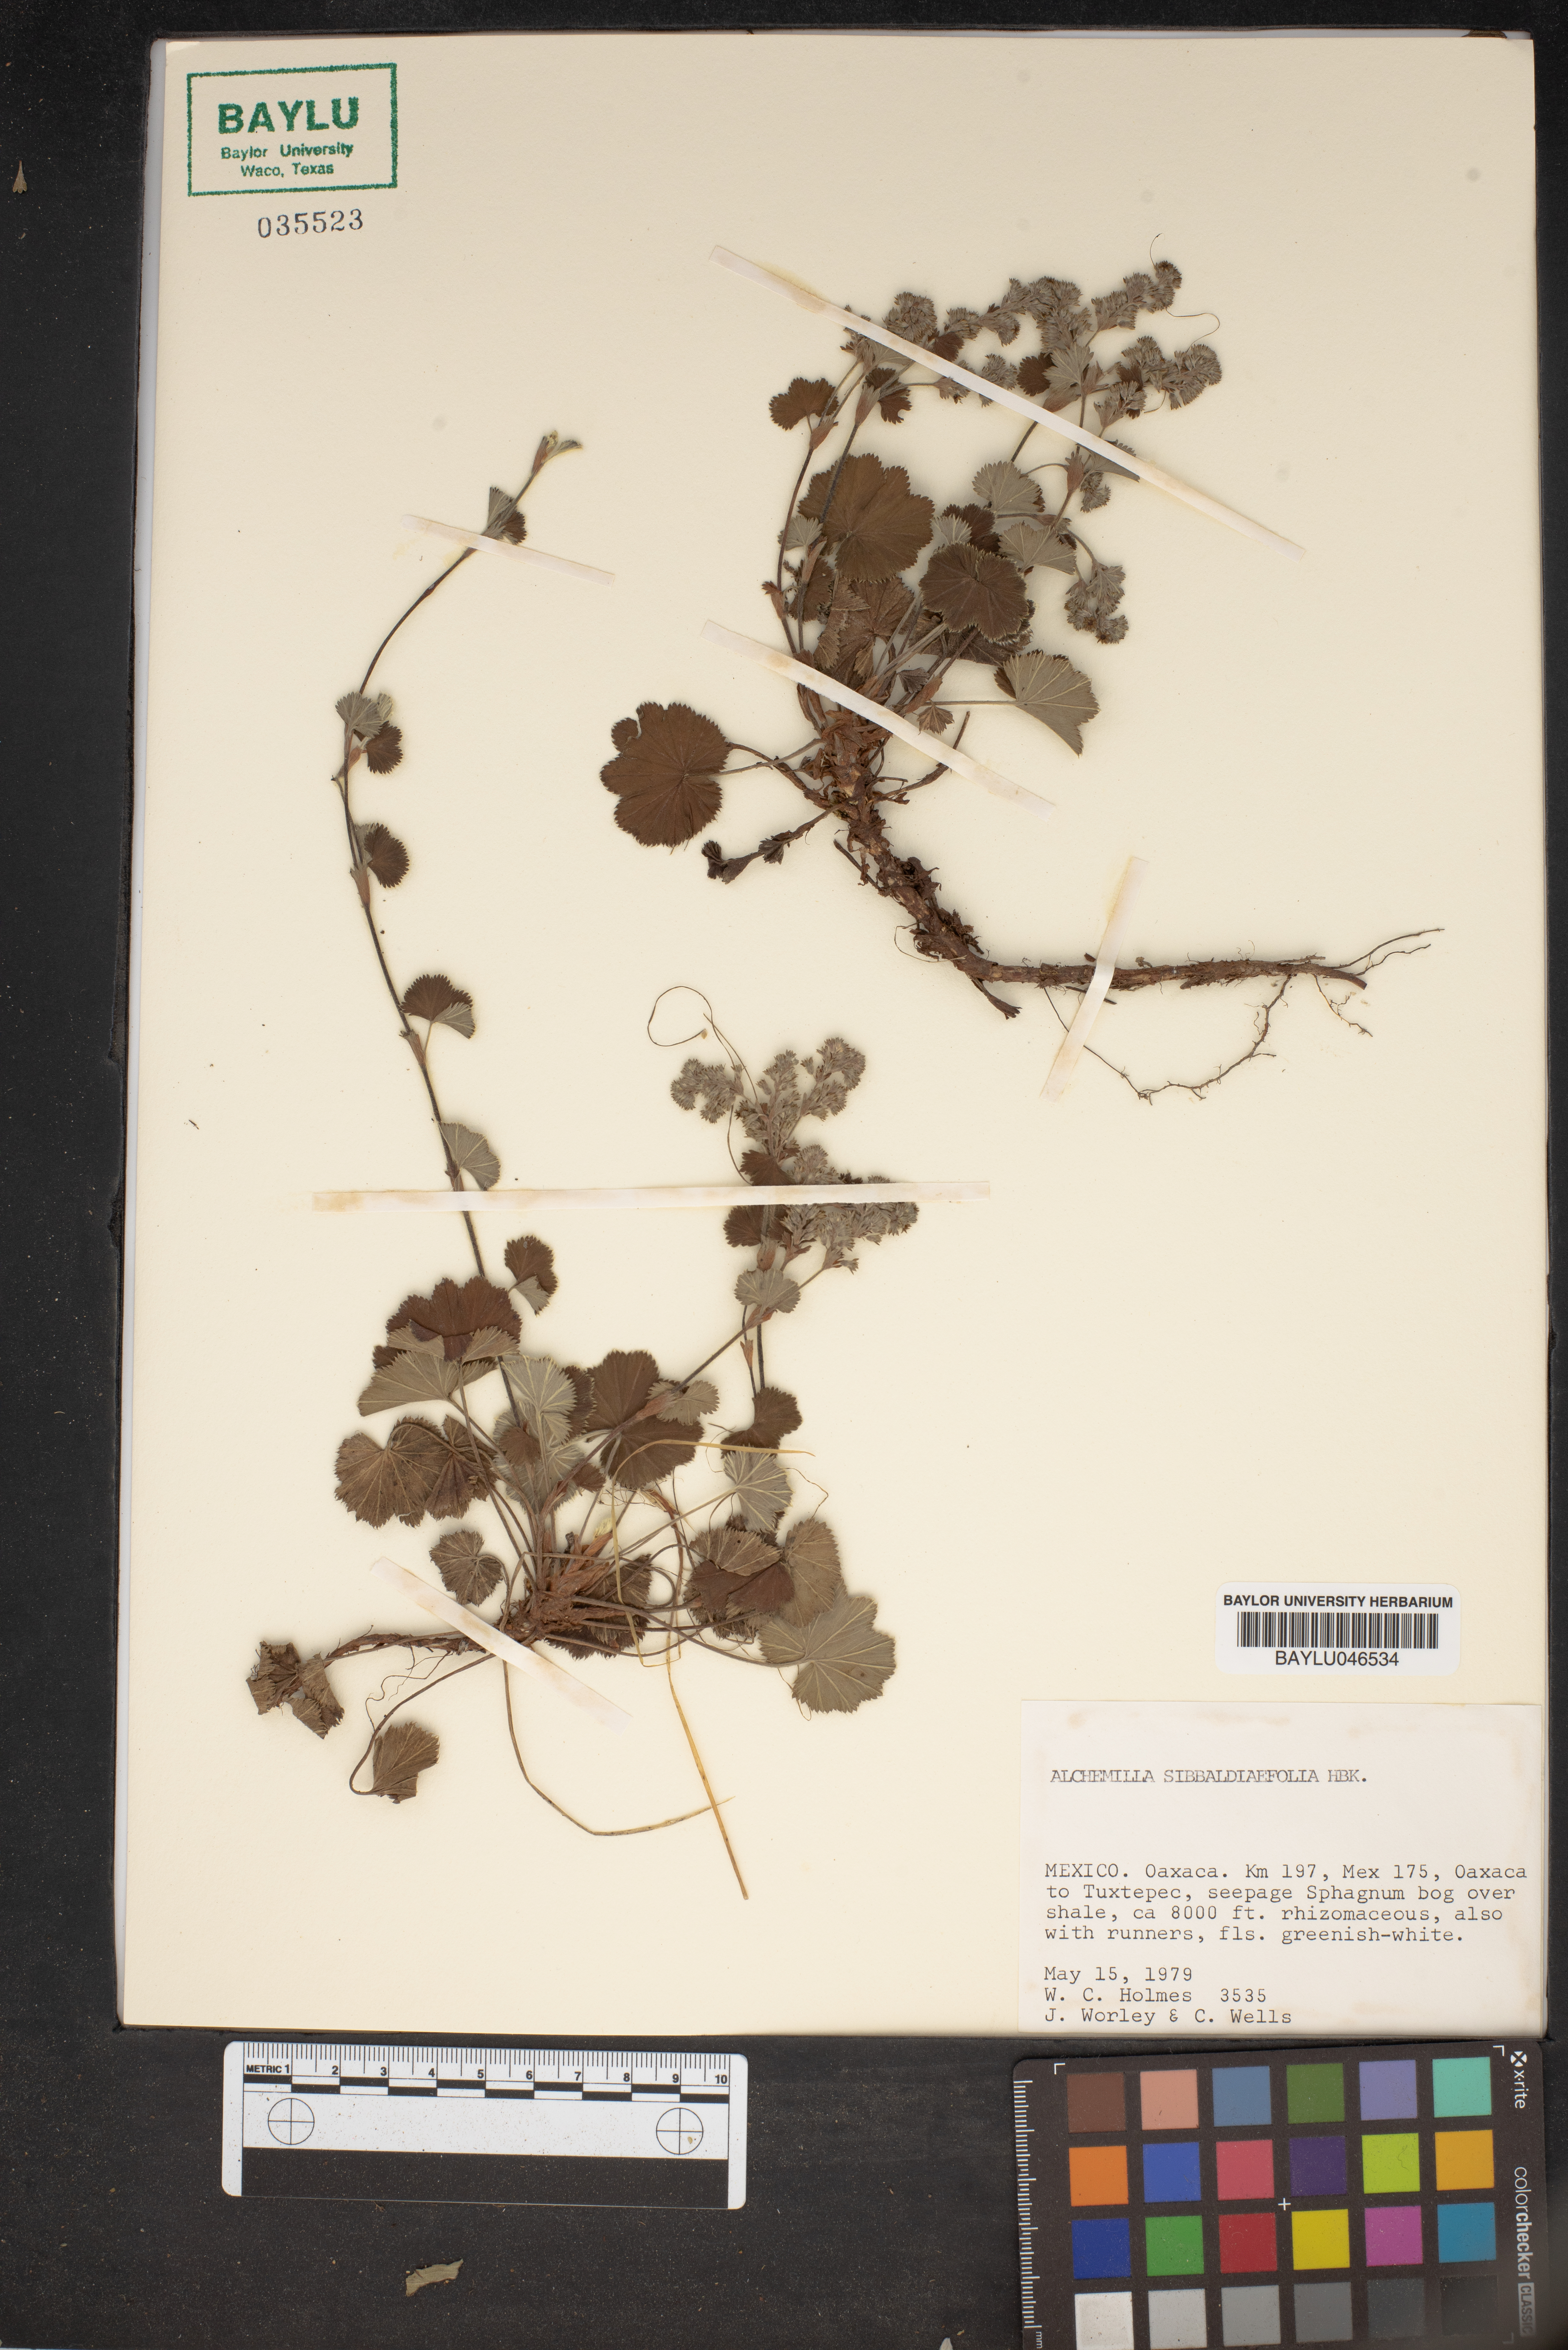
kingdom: Plantae
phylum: Tracheophyta
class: Magnoliopsida
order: Rosales
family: Rosaceae
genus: Alchemilla
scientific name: Alchemilla sibbaldiaefolia
